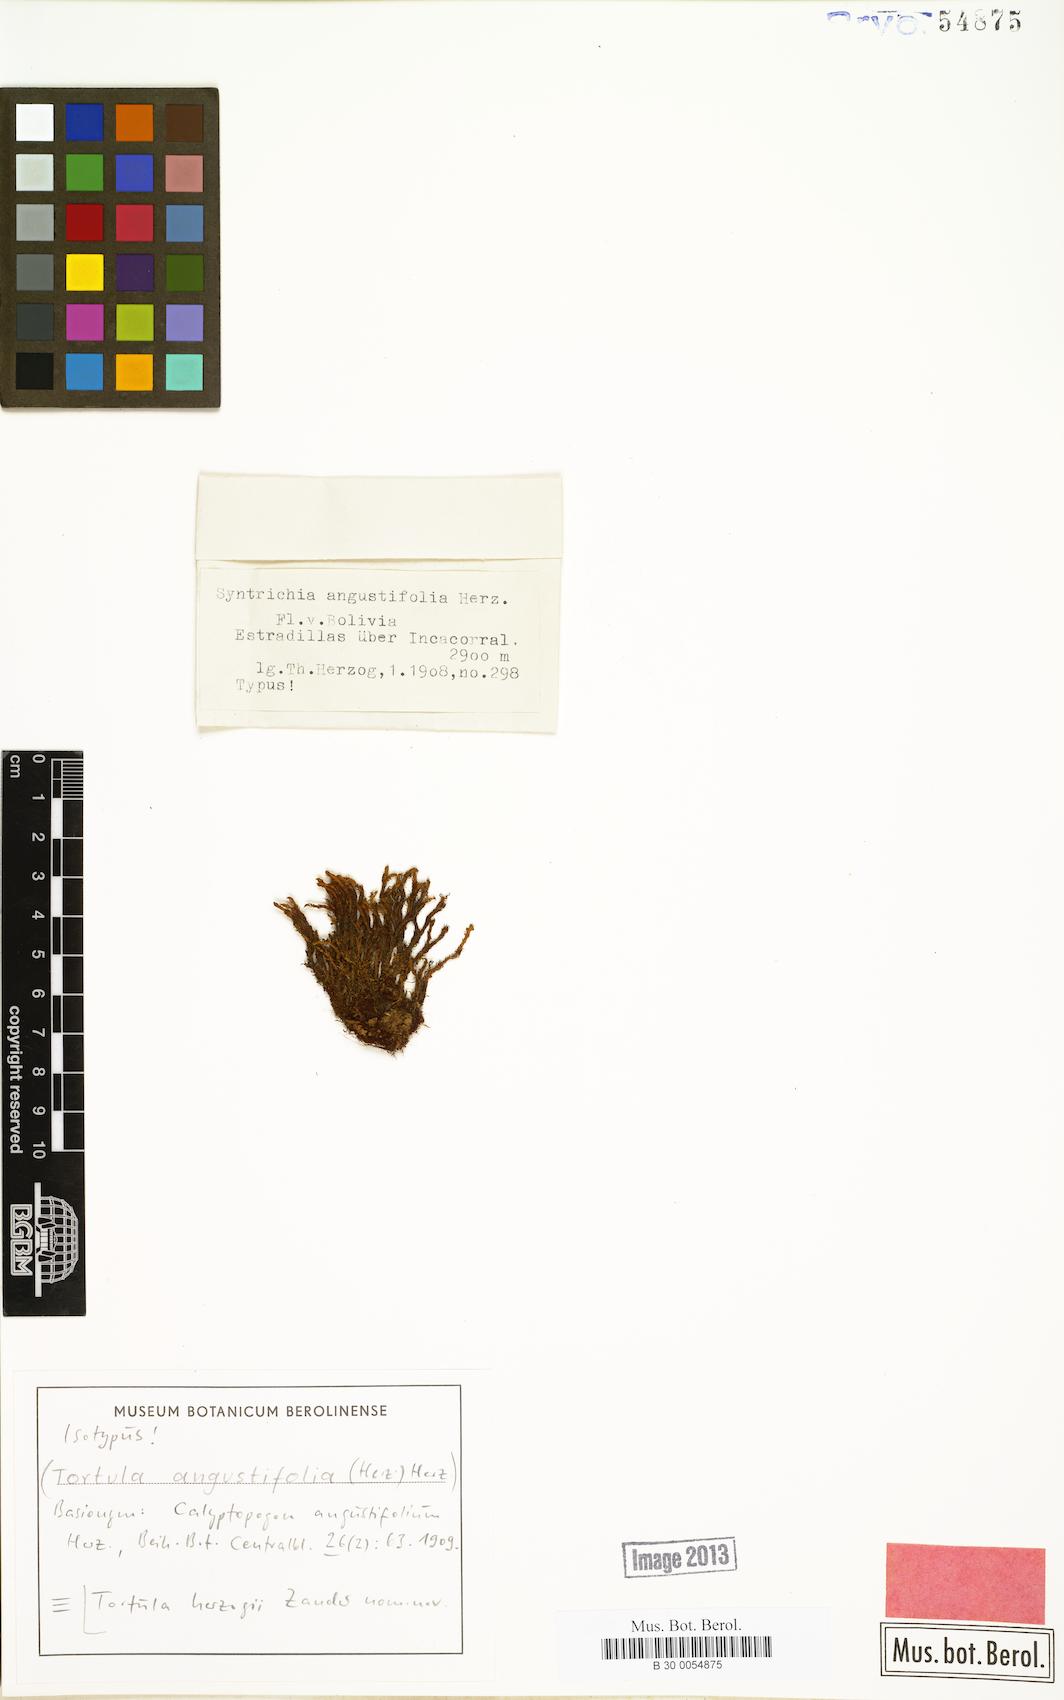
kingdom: Plantae
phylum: Bryophyta
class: Bryopsida
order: Pottiales
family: Pottiaceae
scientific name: Pottiaceae
